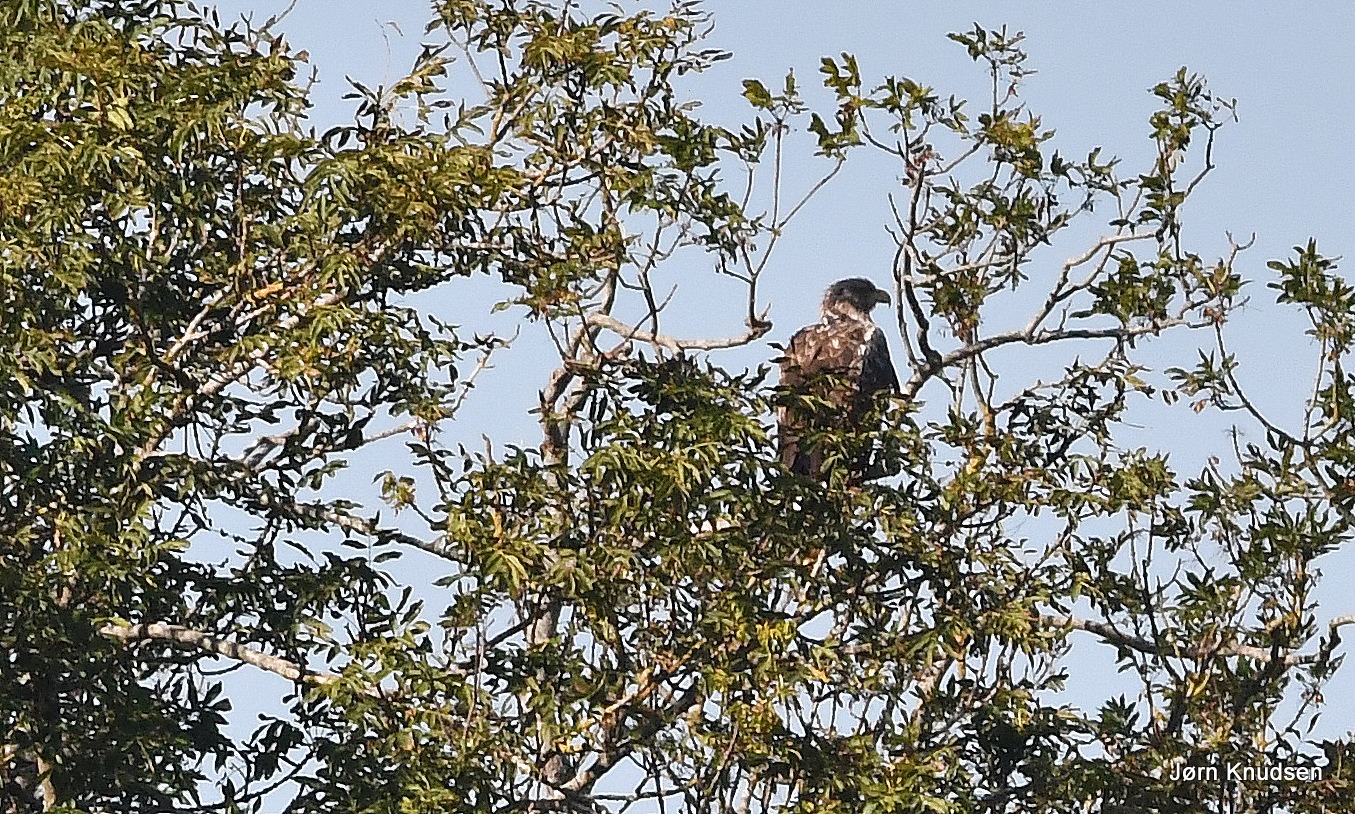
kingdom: Animalia
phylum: Chordata
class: Aves
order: Accipitriformes
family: Accipitridae
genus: Haliaeetus
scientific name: Haliaeetus albicilla
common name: Havørn
